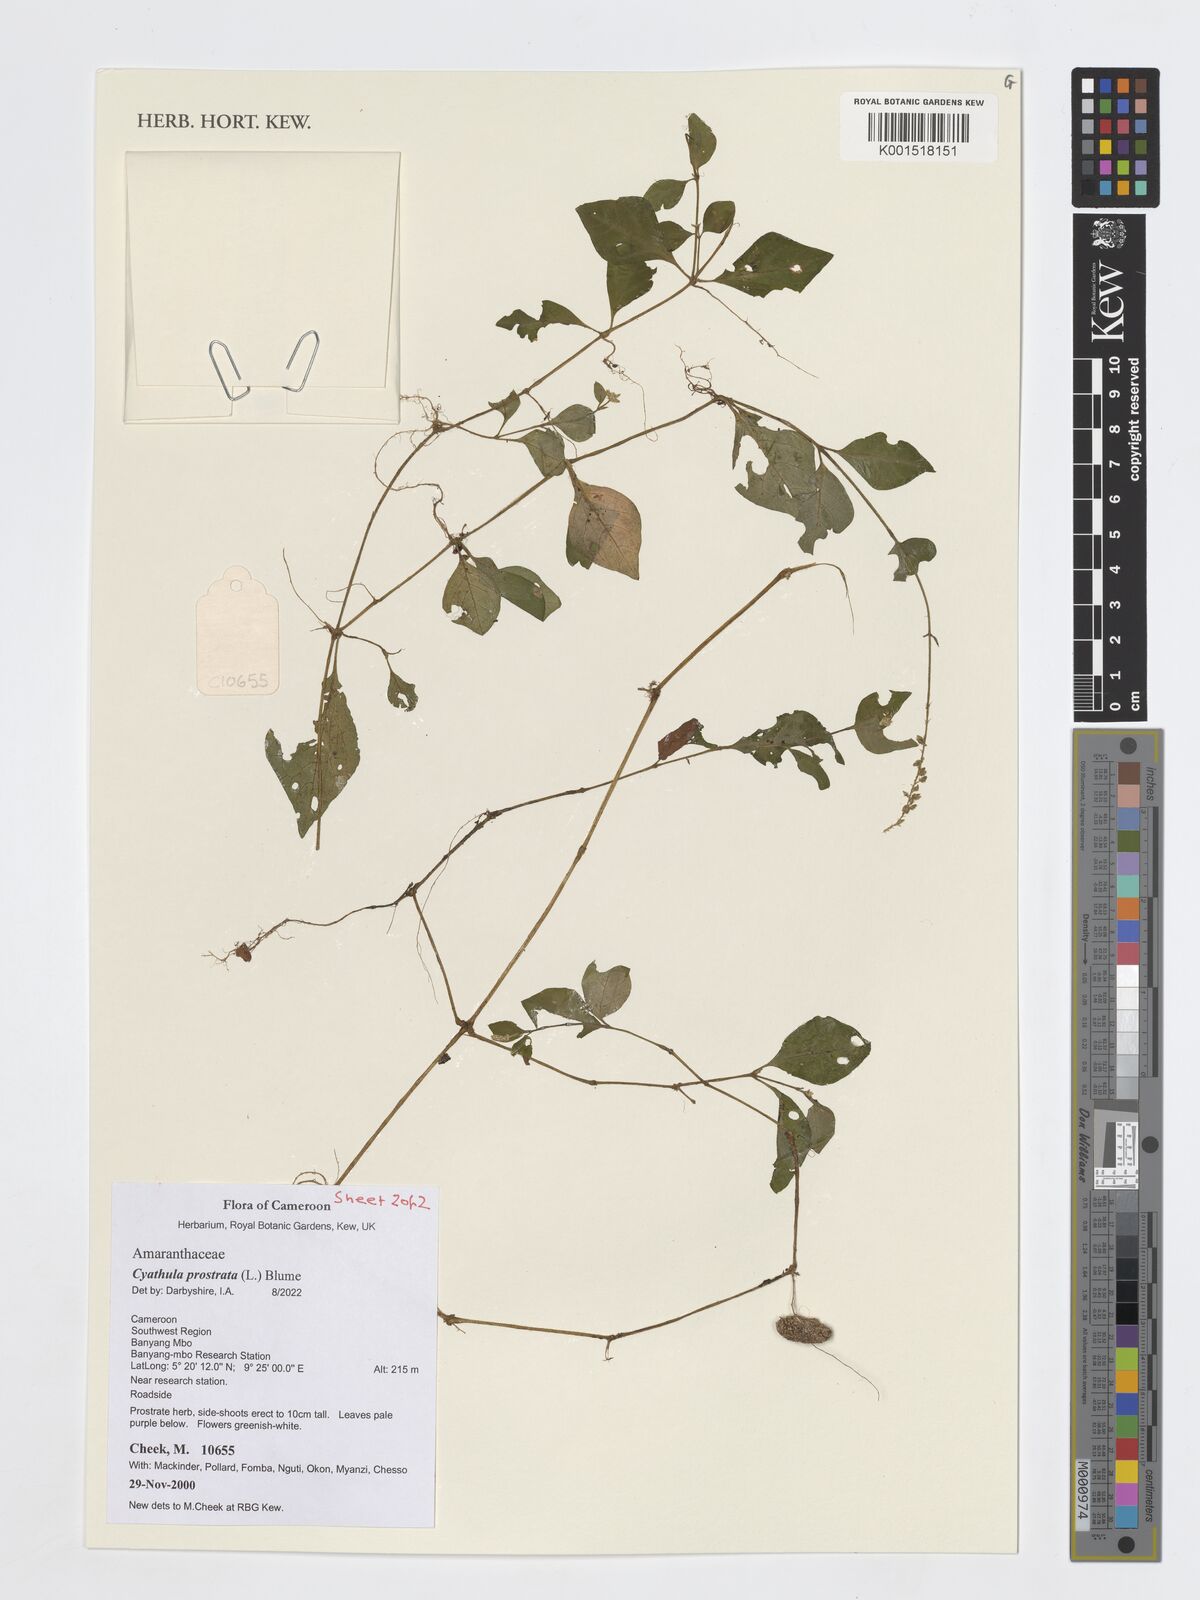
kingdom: Plantae
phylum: Tracheophyta
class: Magnoliopsida
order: Caryophyllales
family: Amaranthaceae
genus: Cyathula
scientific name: Cyathula prostrata
